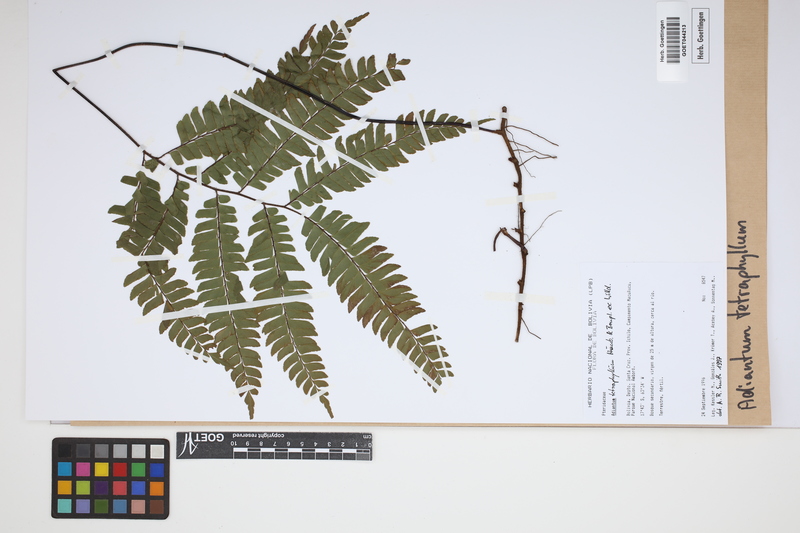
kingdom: Plantae
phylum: Tracheophyta
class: Polypodiopsida
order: Polypodiales
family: Pteridaceae
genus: Adiantum
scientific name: Adiantum tetraphyllum
